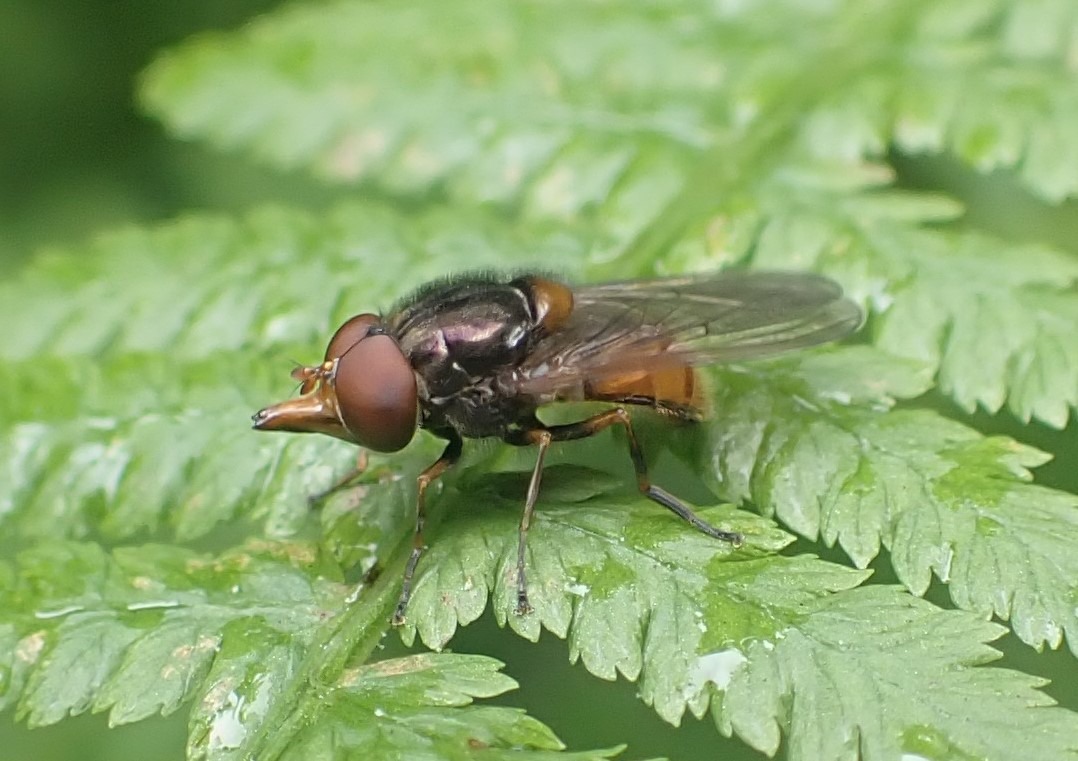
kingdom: Animalia
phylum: Arthropoda
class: Insecta
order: Diptera
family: Syrphidae
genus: Rhingia
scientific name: Rhingia campestris
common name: Mark-snabelsvirreflue
